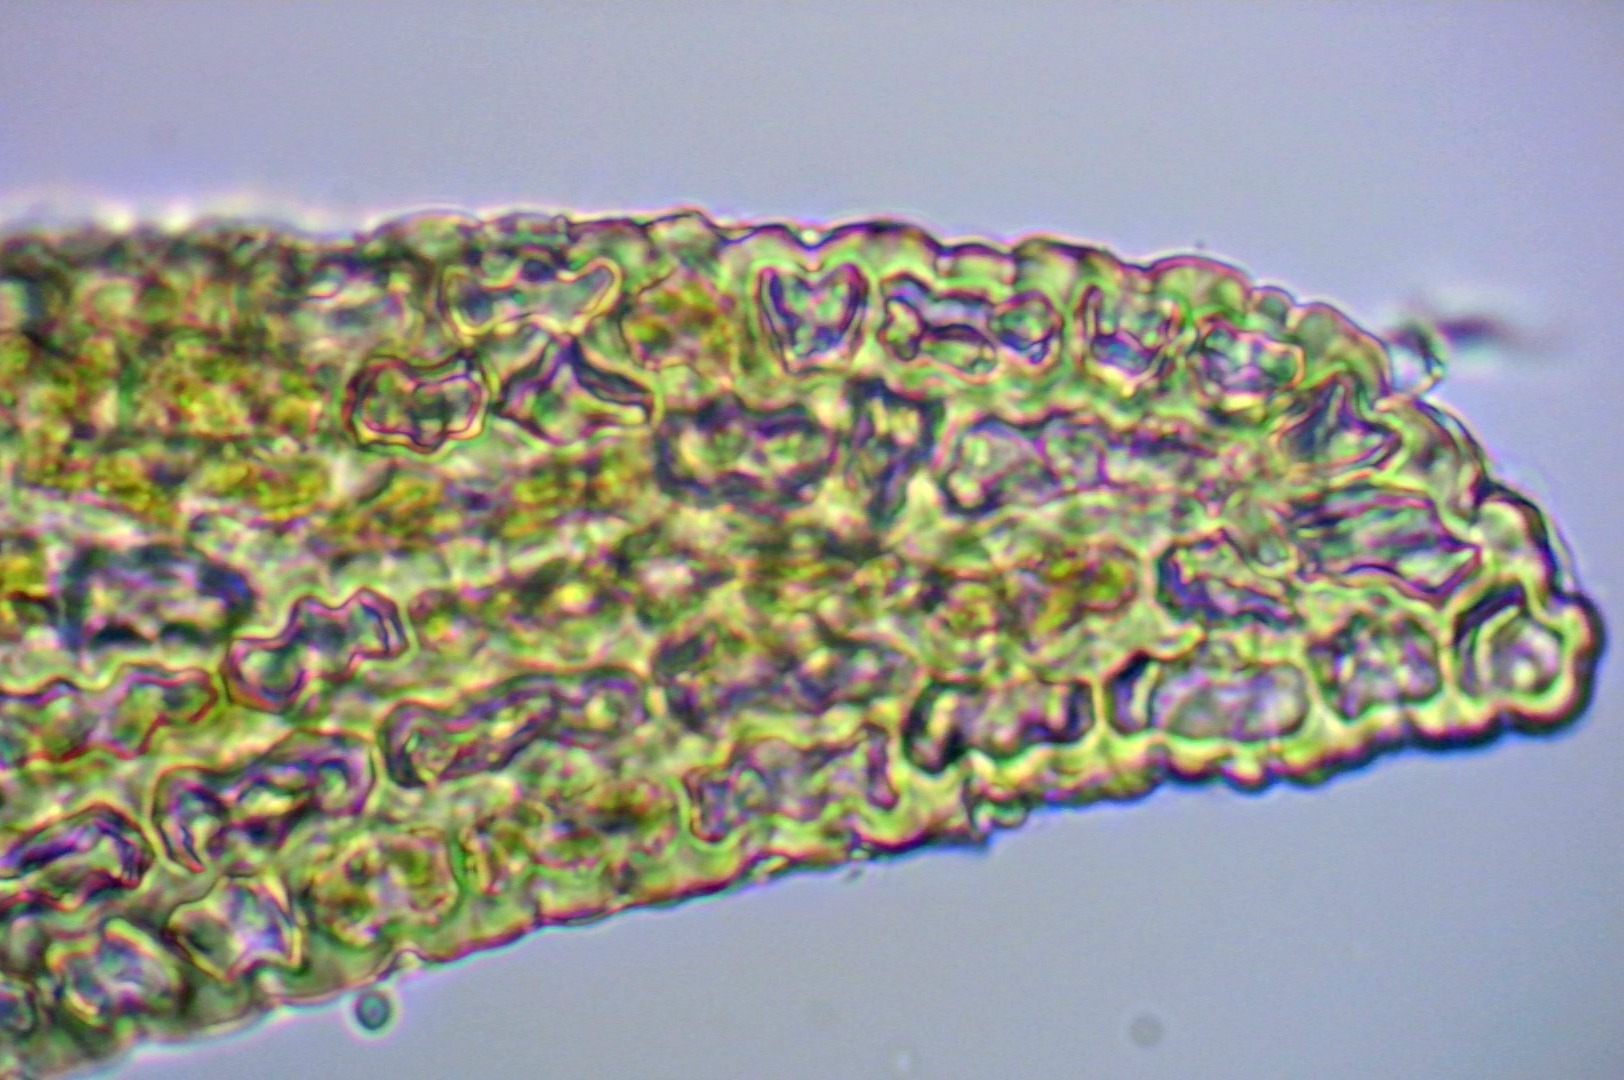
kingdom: Plantae
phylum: Bryophyta
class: Bryopsida
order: Grimmiales
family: Grimmiaceae
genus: Dilutineuron
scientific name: Dilutineuron fasciculare
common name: Knippe-børstemos
